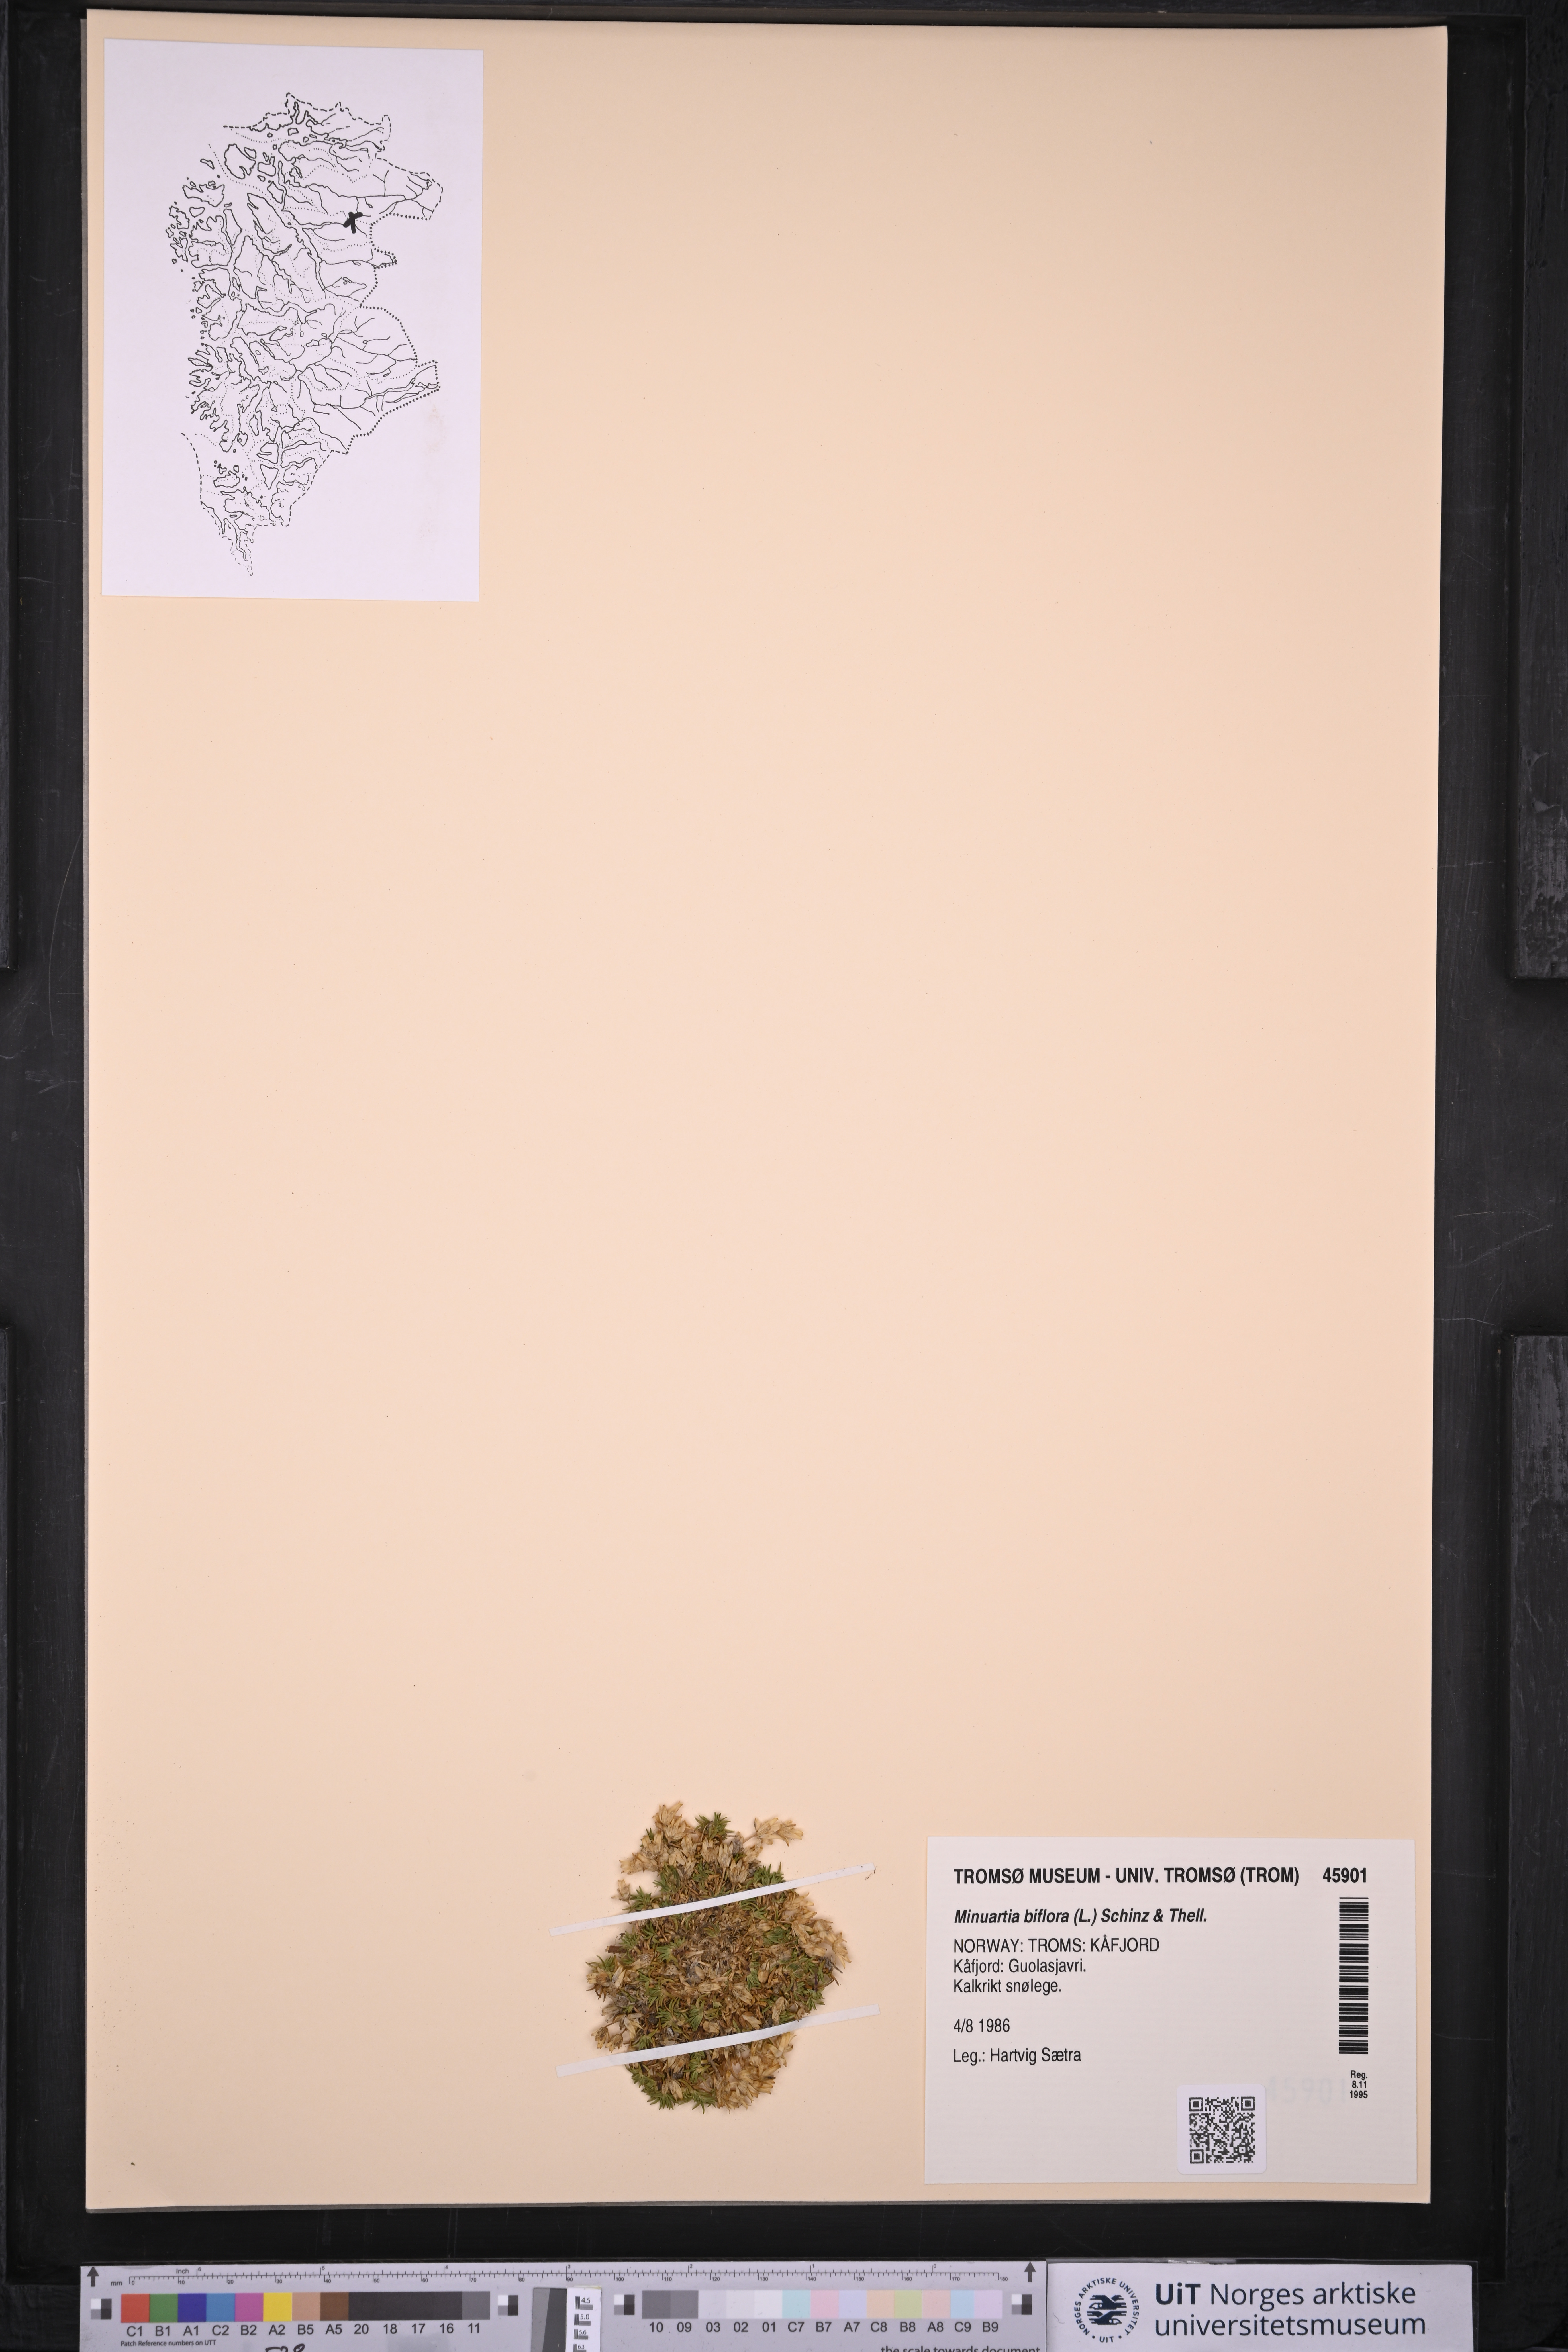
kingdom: Plantae
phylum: Tracheophyta
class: Magnoliopsida
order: Caryophyllales
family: Caryophyllaceae
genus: Cherleria
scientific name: Cherleria biflora
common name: Mountain sandwort
